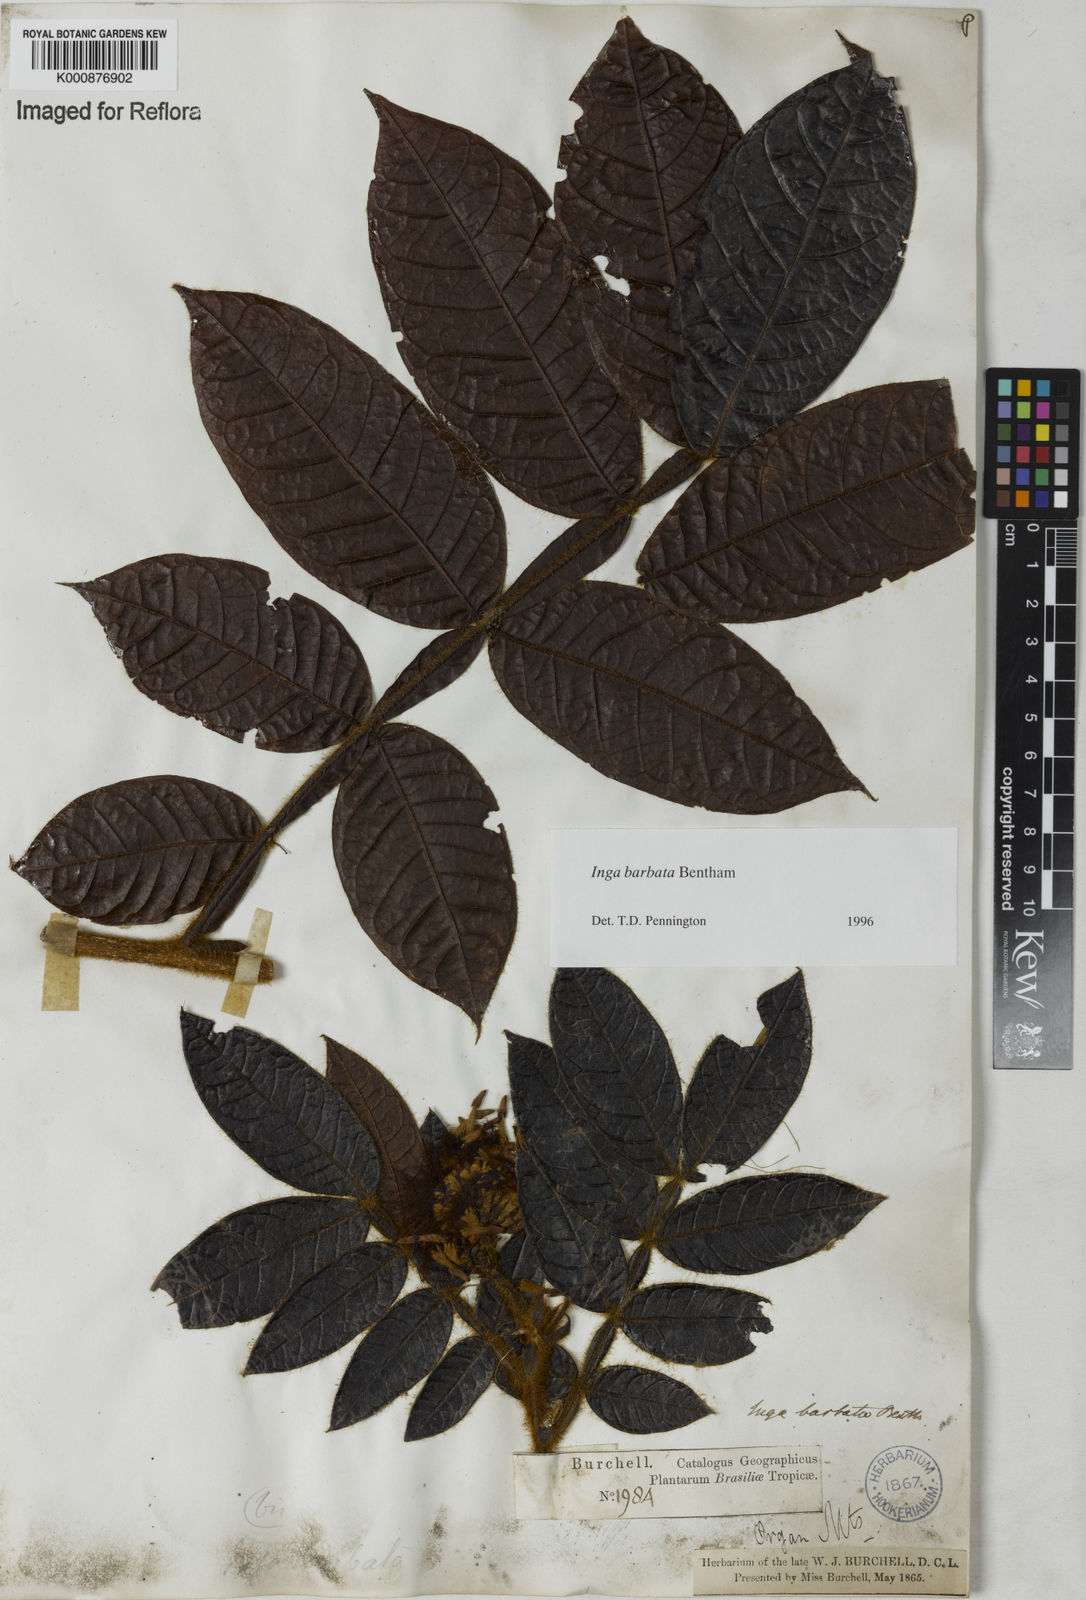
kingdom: Plantae
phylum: Tracheophyta
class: Magnoliopsida
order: Fabales
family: Fabaceae
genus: Inga
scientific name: Inga barbata
